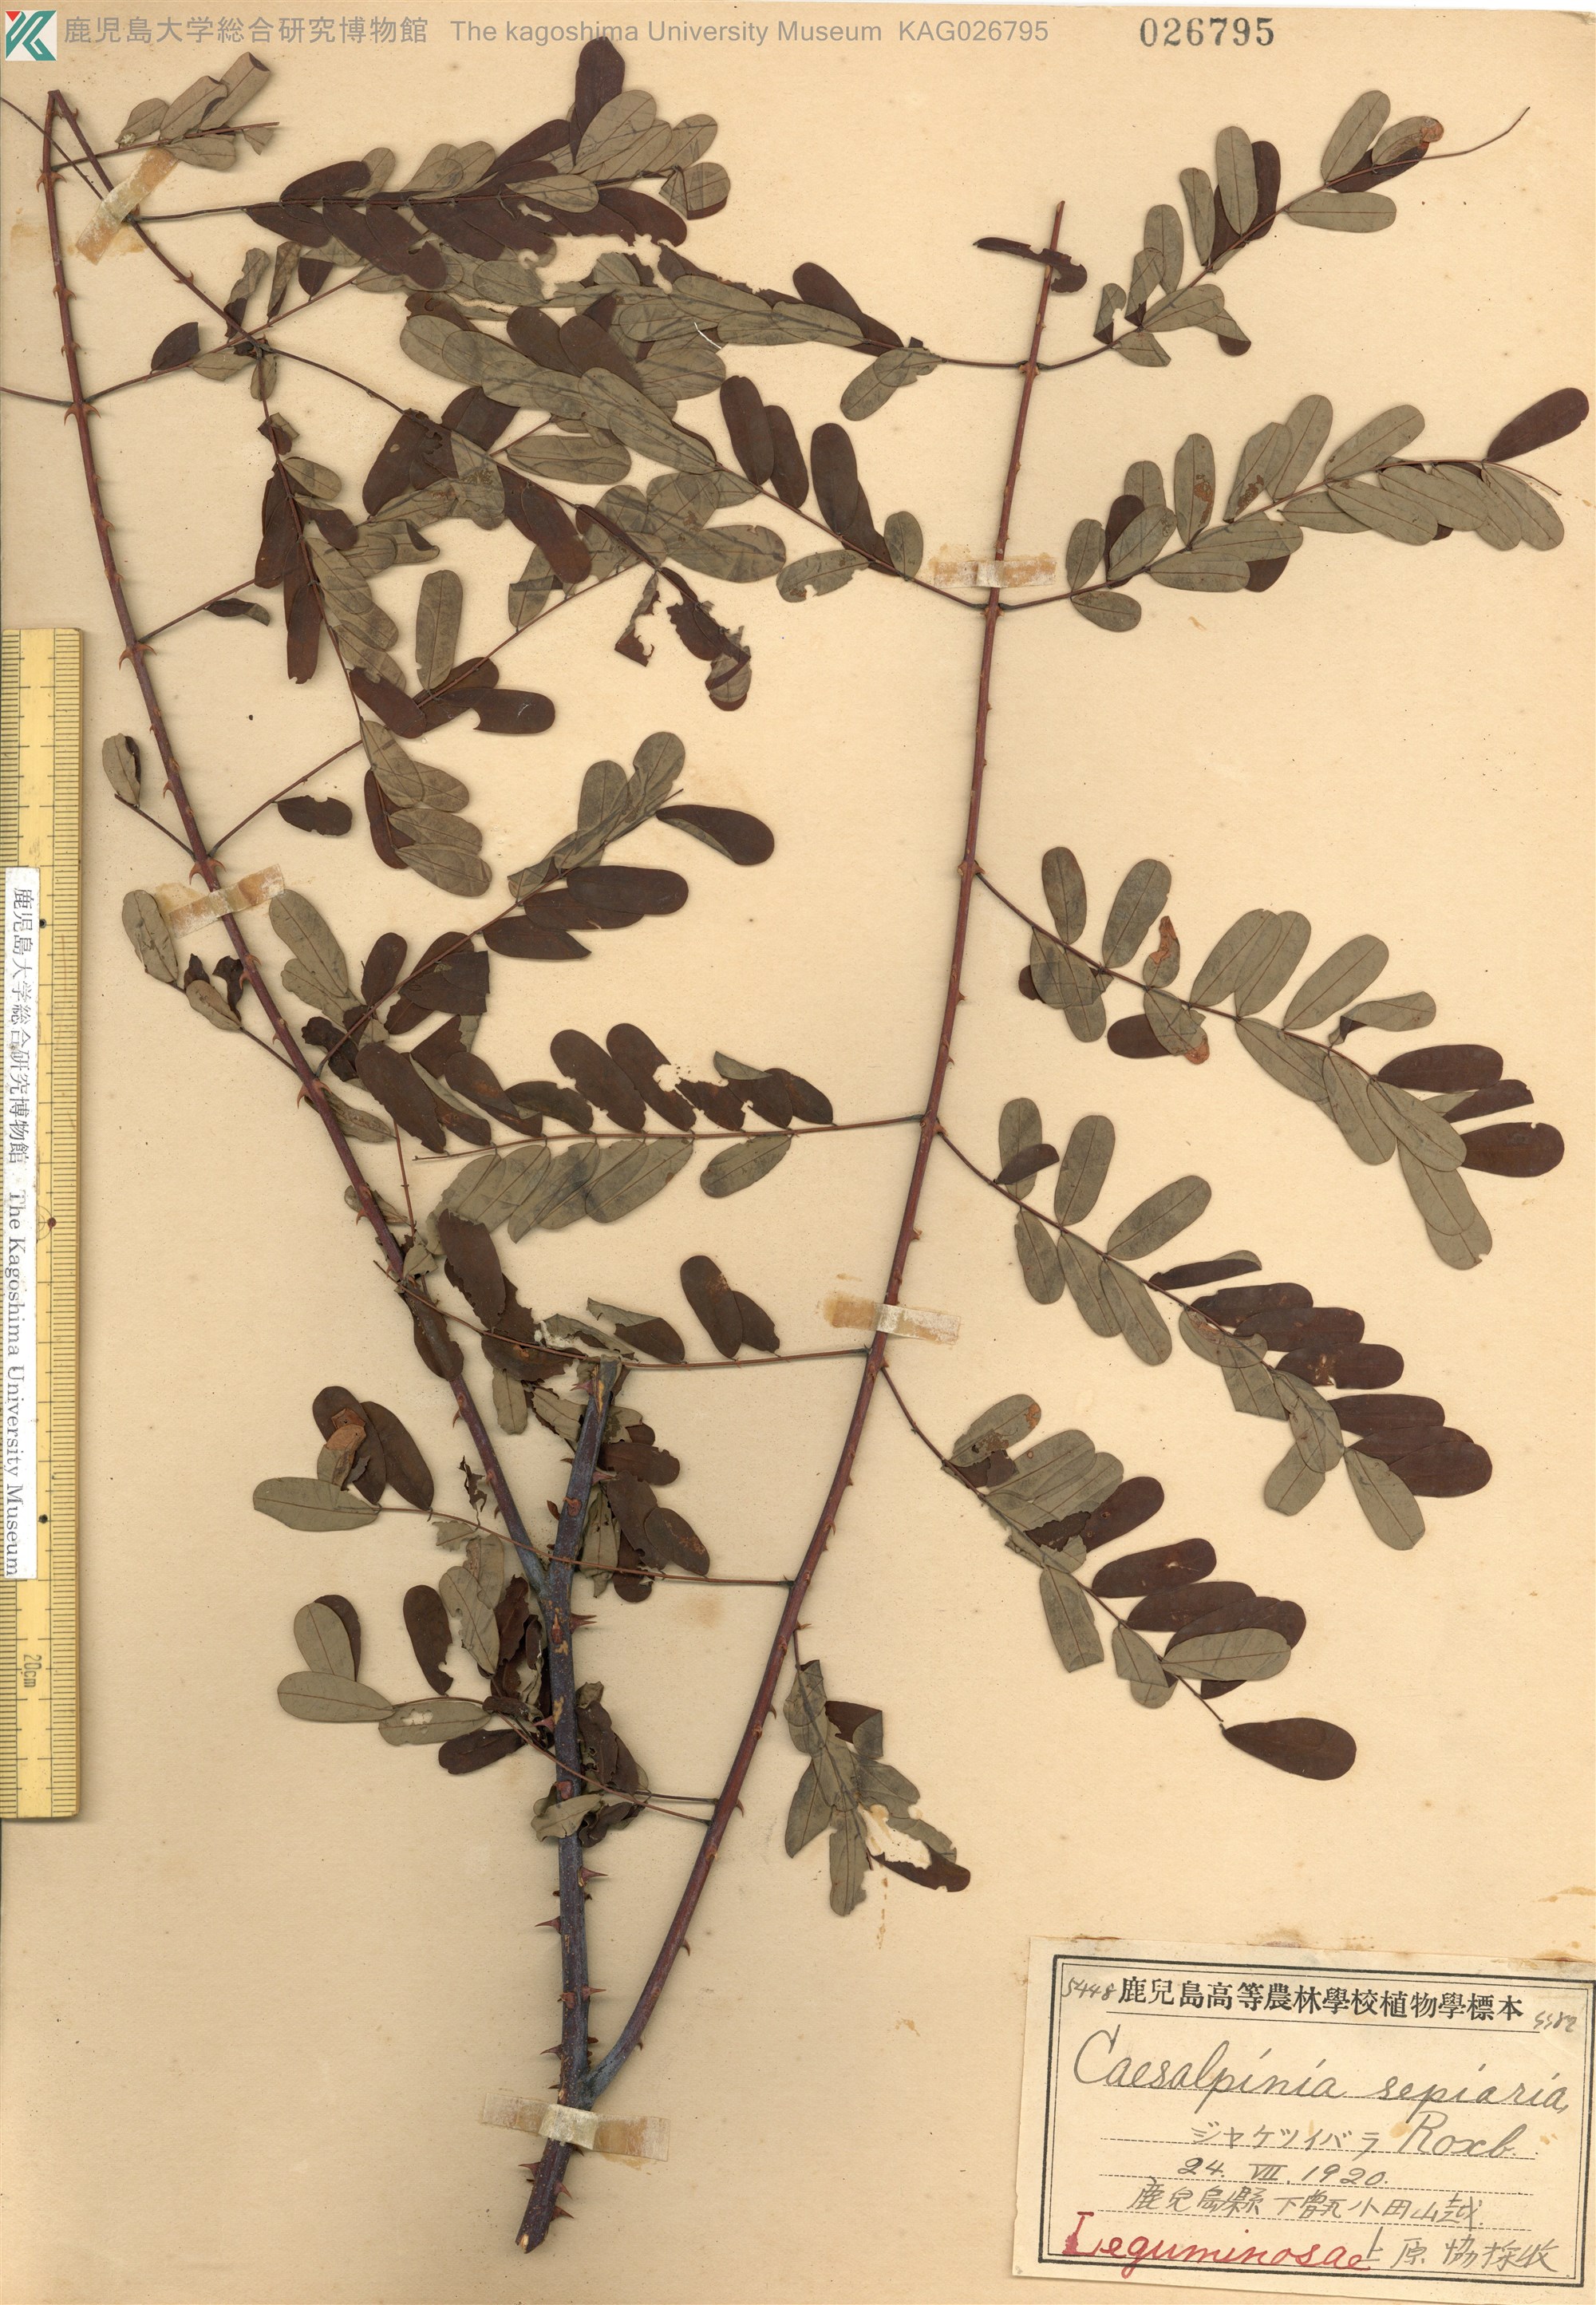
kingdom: Plantae
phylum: Tracheophyta
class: Magnoliopsida
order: Fabales
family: Fabaceae
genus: Biancaea
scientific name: Biancaea decapetala
